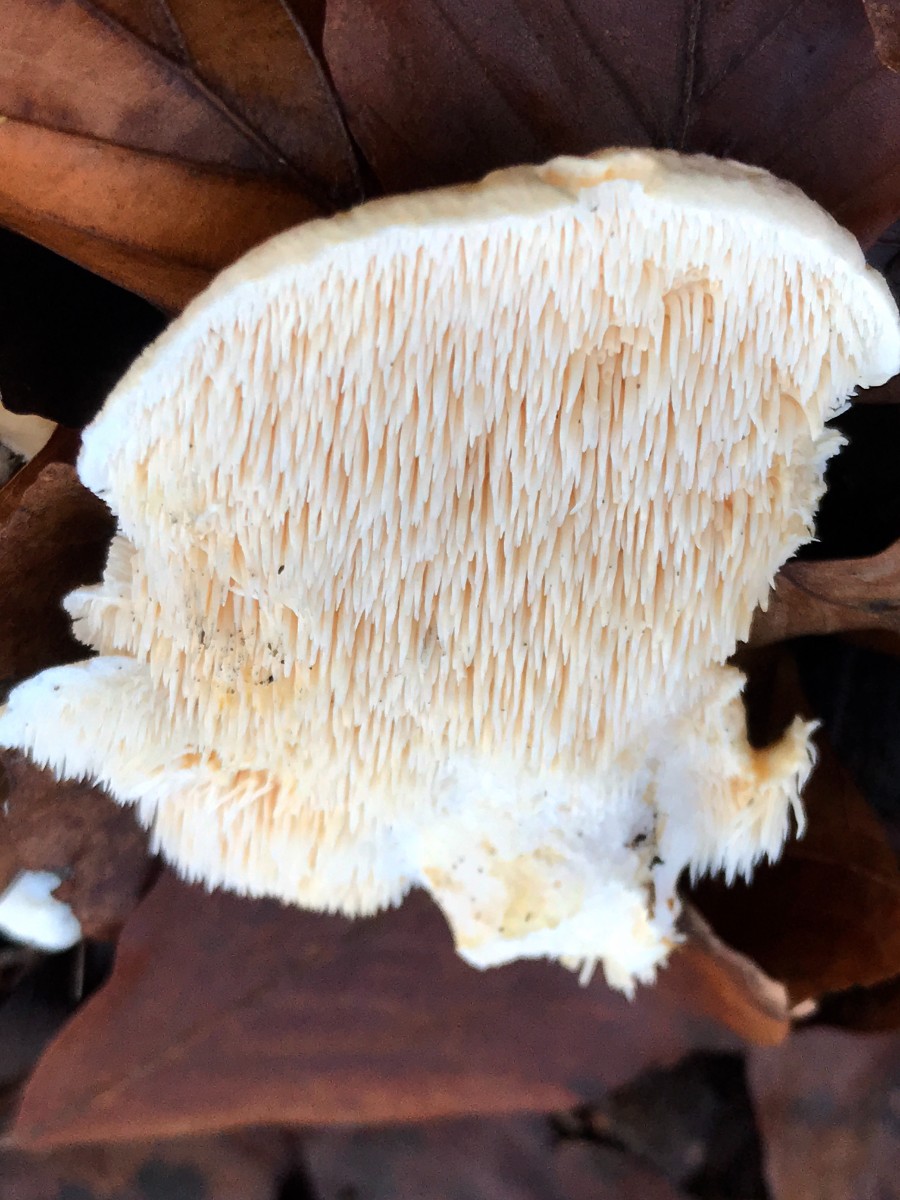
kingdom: Fungi
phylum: Basidiomycota
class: Agaricomycetes
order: Cantharellales
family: Hydnaceae
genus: Hydnum
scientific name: Hydnum repandum
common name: almindelig pigsvamp
